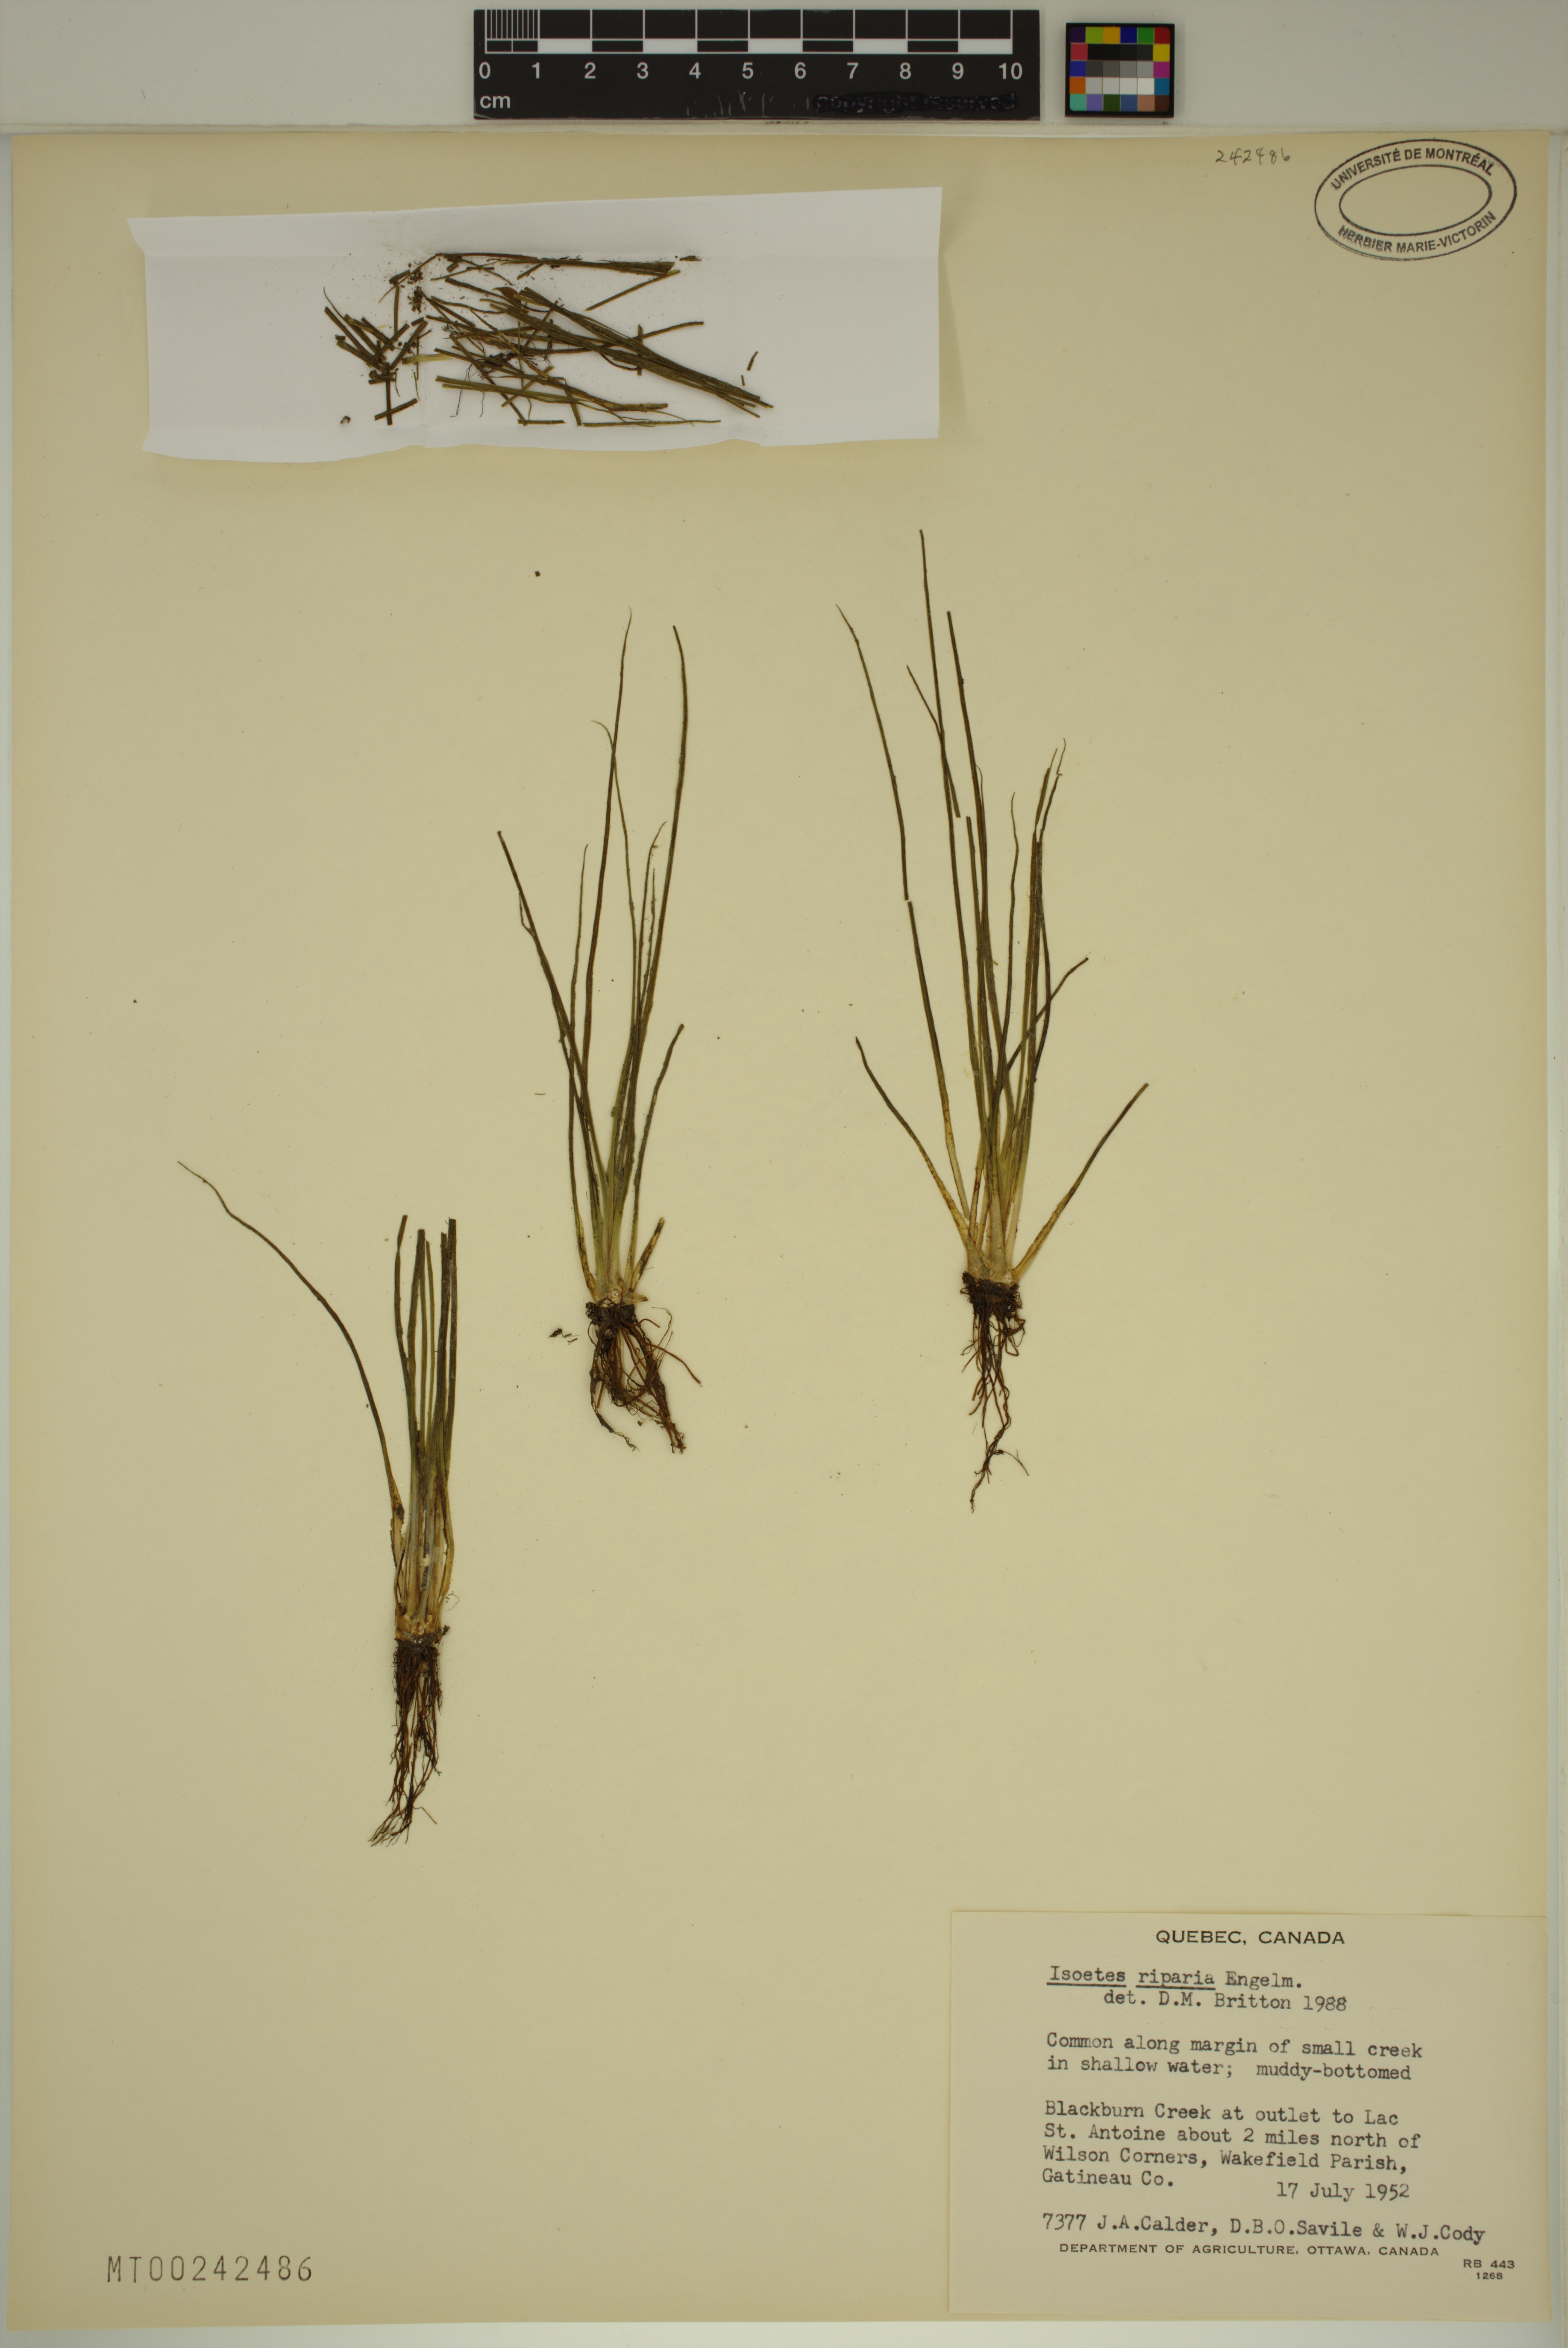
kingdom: Plantae
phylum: Tracheophyta
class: Lycopodiopsida
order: Isoetales
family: Isoetaceae
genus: Isoetes
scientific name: Isoetes septentrionalis
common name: Northern quillwort
